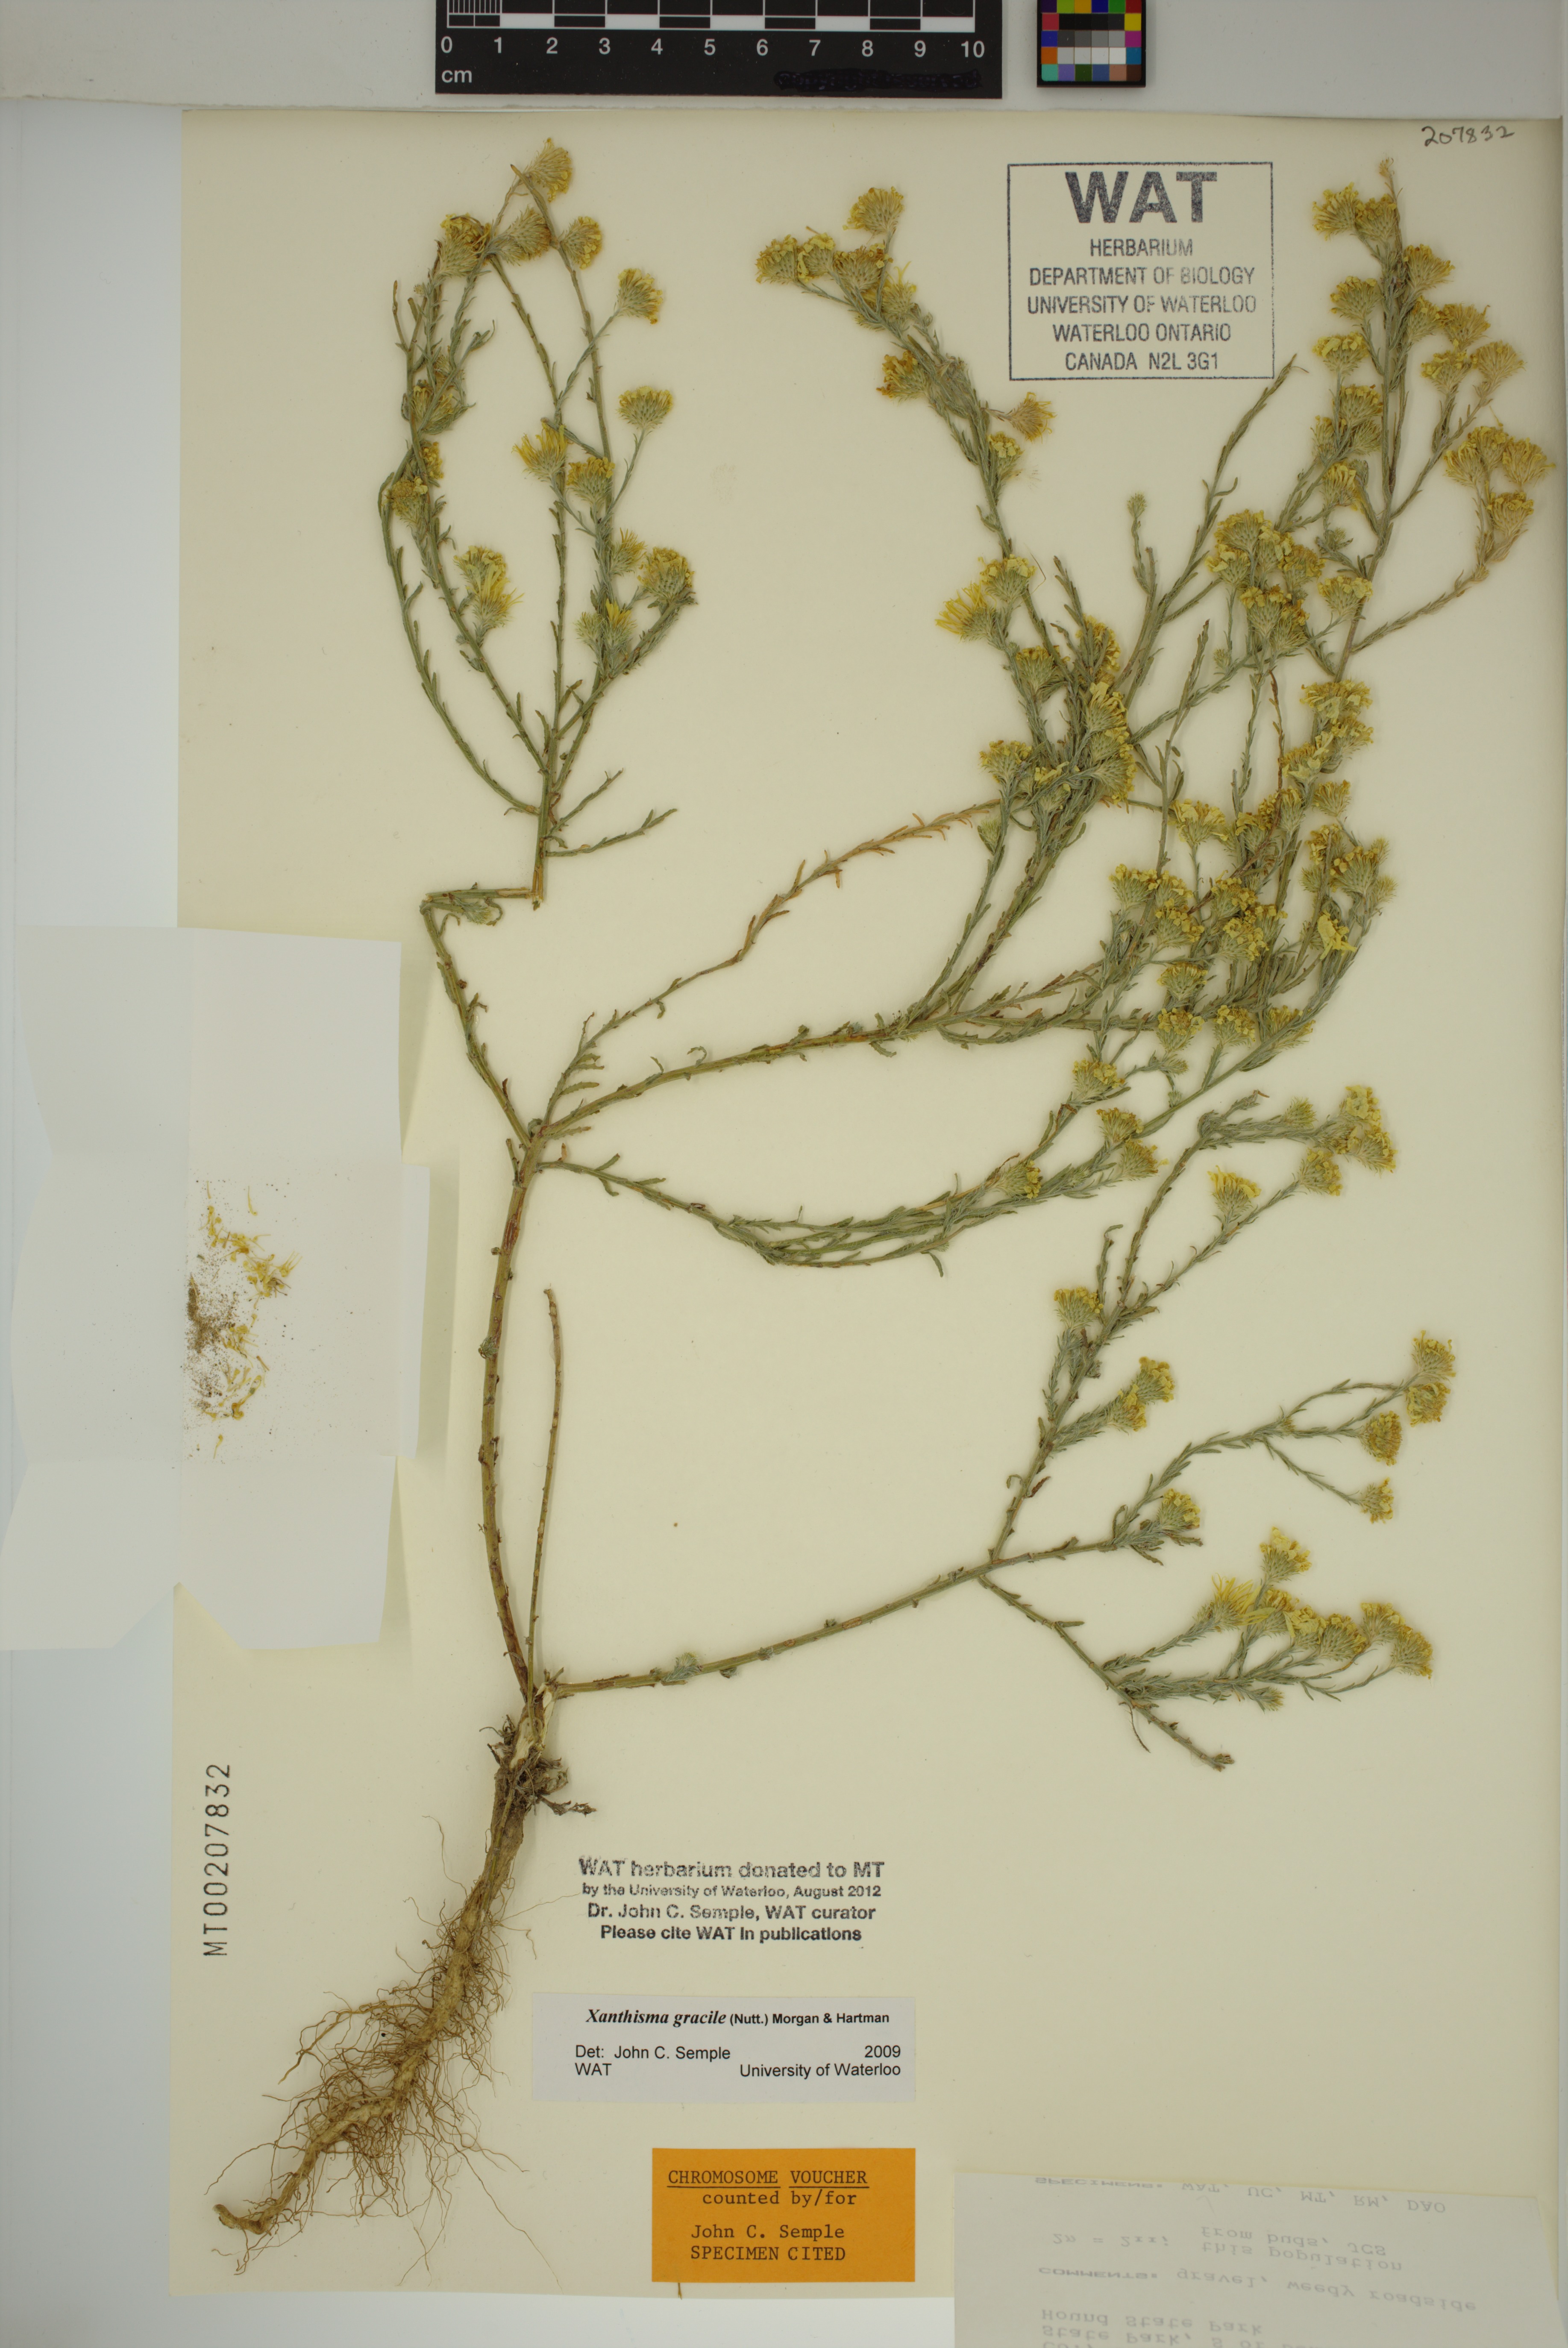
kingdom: Plantae
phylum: Tracheophyta
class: Magnoliopsida
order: Asterales
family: Asteraceae
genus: Xanthisma
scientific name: Xanthisma gracile
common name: Slender goldenweed
